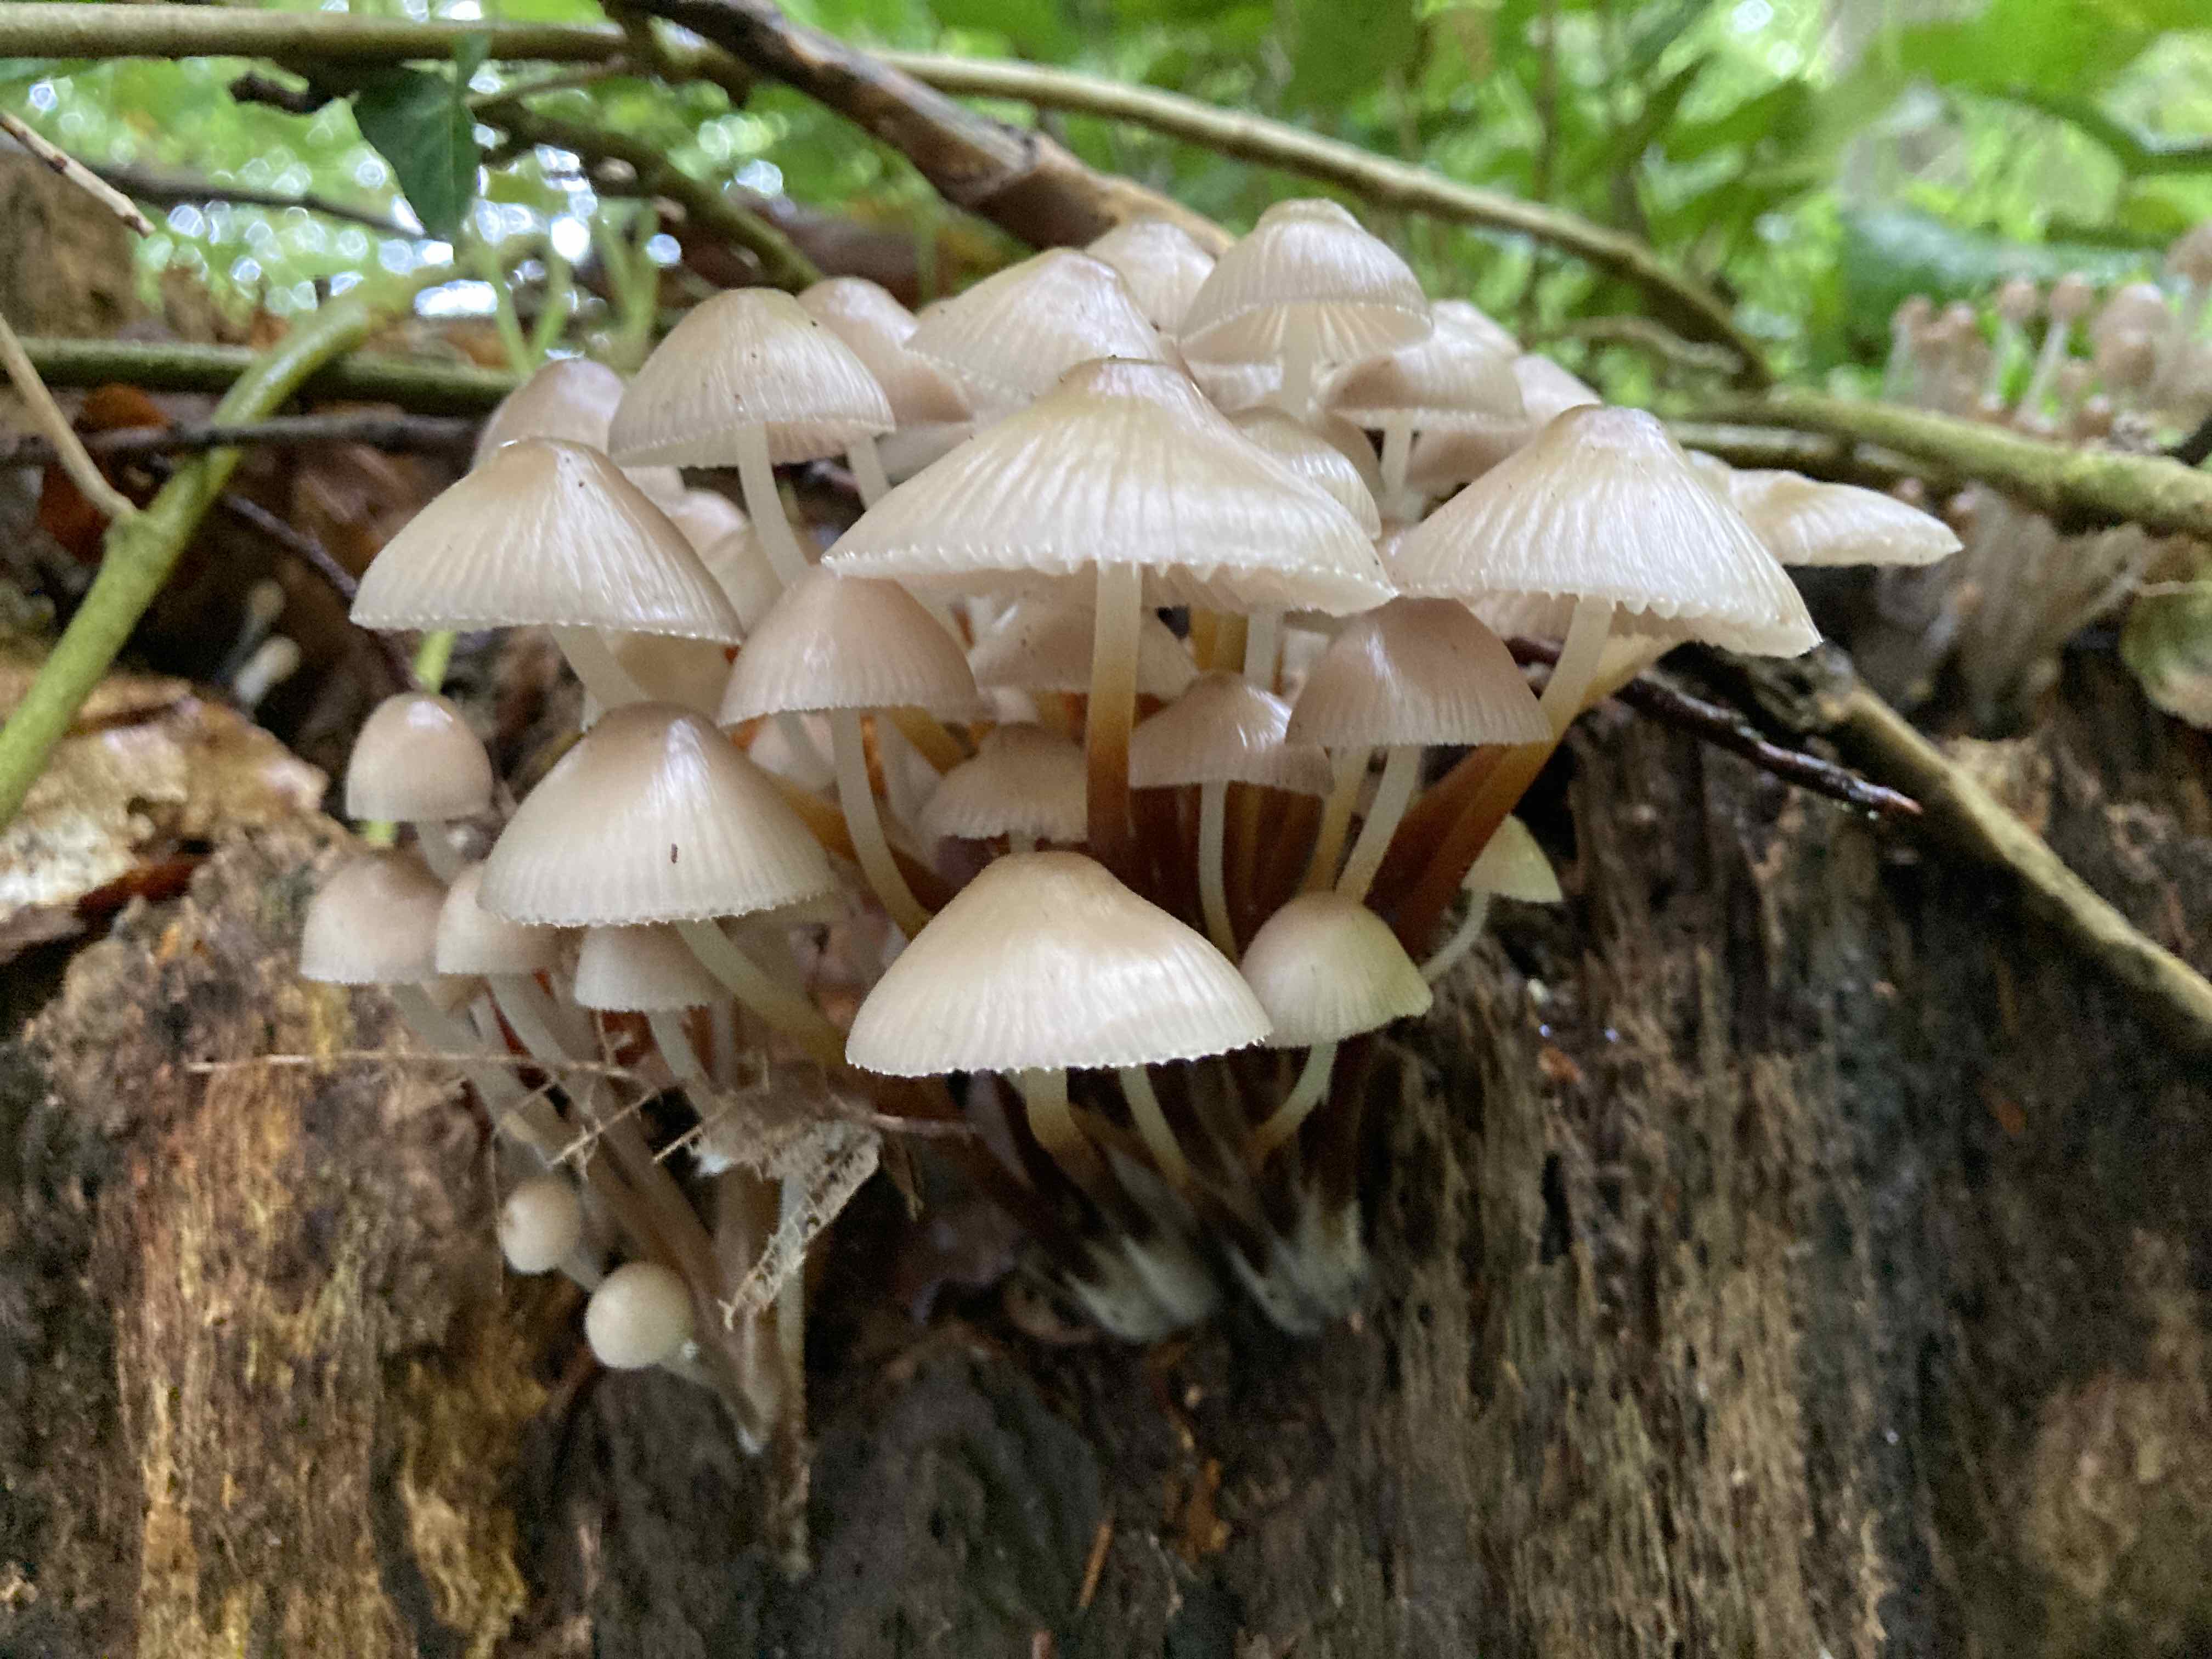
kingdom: Fungi
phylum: Basidiomycota
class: Agaricomycetes
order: Agaricales
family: Mycenaceae
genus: Mycena
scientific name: Mycena inclinata
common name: nikkende huesvamp
